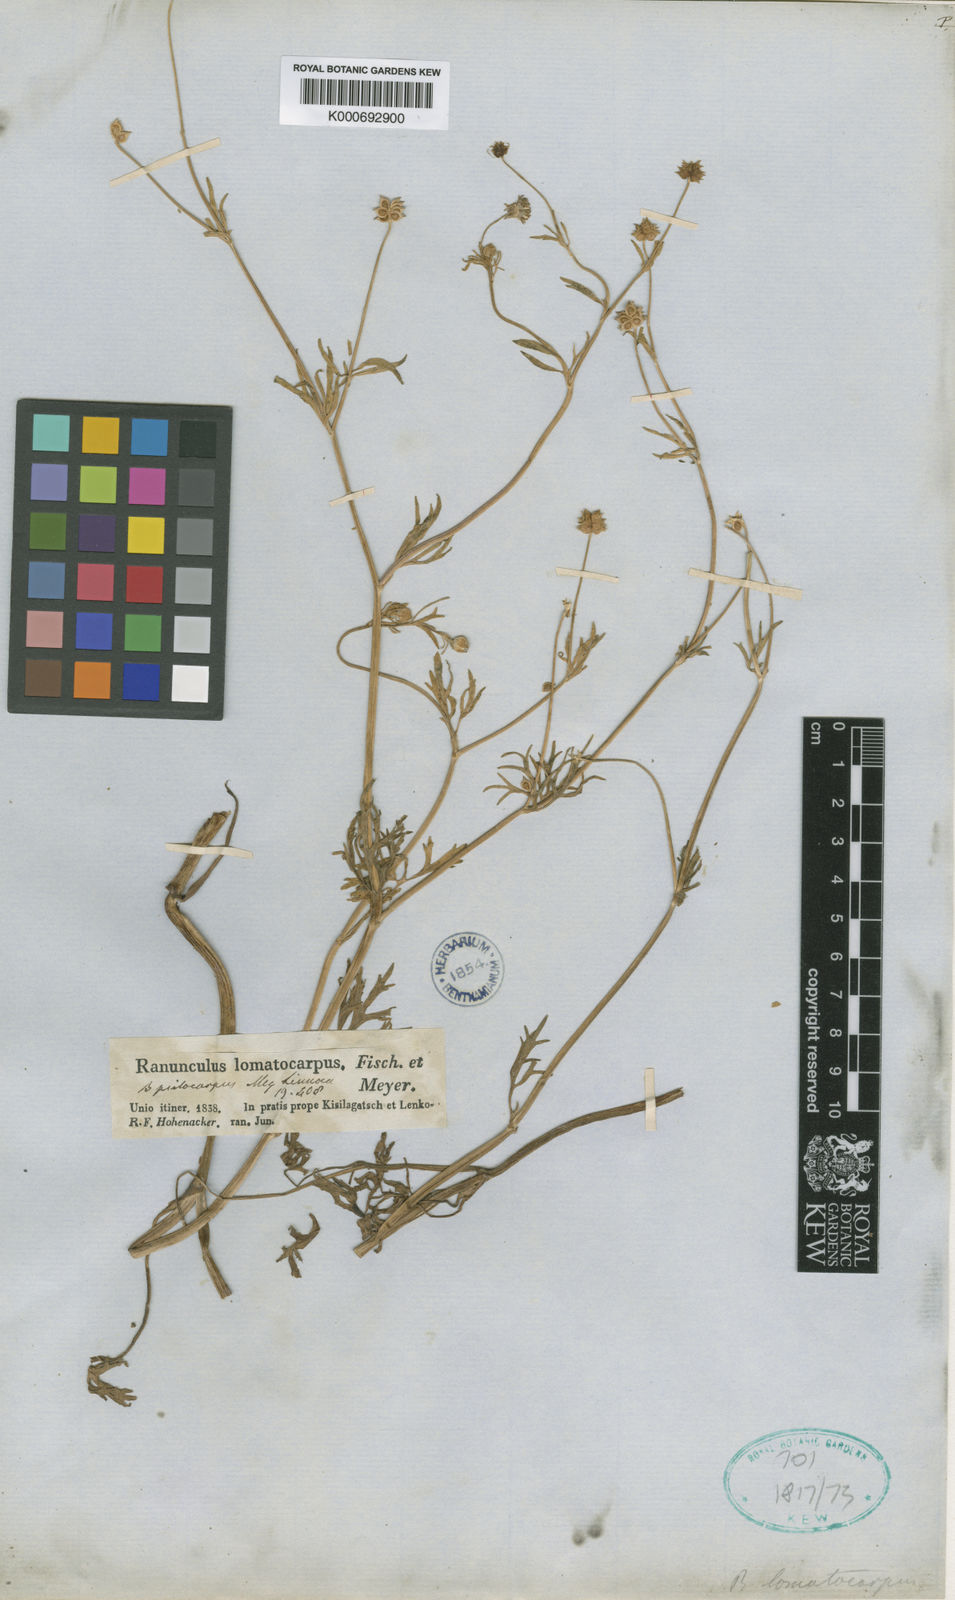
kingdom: Plantae
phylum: Tracheophyta
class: Magnoliopsida
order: Ranunculales
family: Ranunculaceae
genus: Ranunculus
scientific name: Ranunculus cornutus
